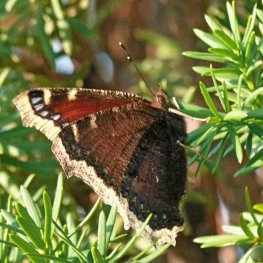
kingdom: Animalia
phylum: Arthropoda
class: Insecta
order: Lepidoptera
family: Nymphalidae
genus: Nymphalis
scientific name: Nymphalis antiopa
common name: Mourning Cloak
